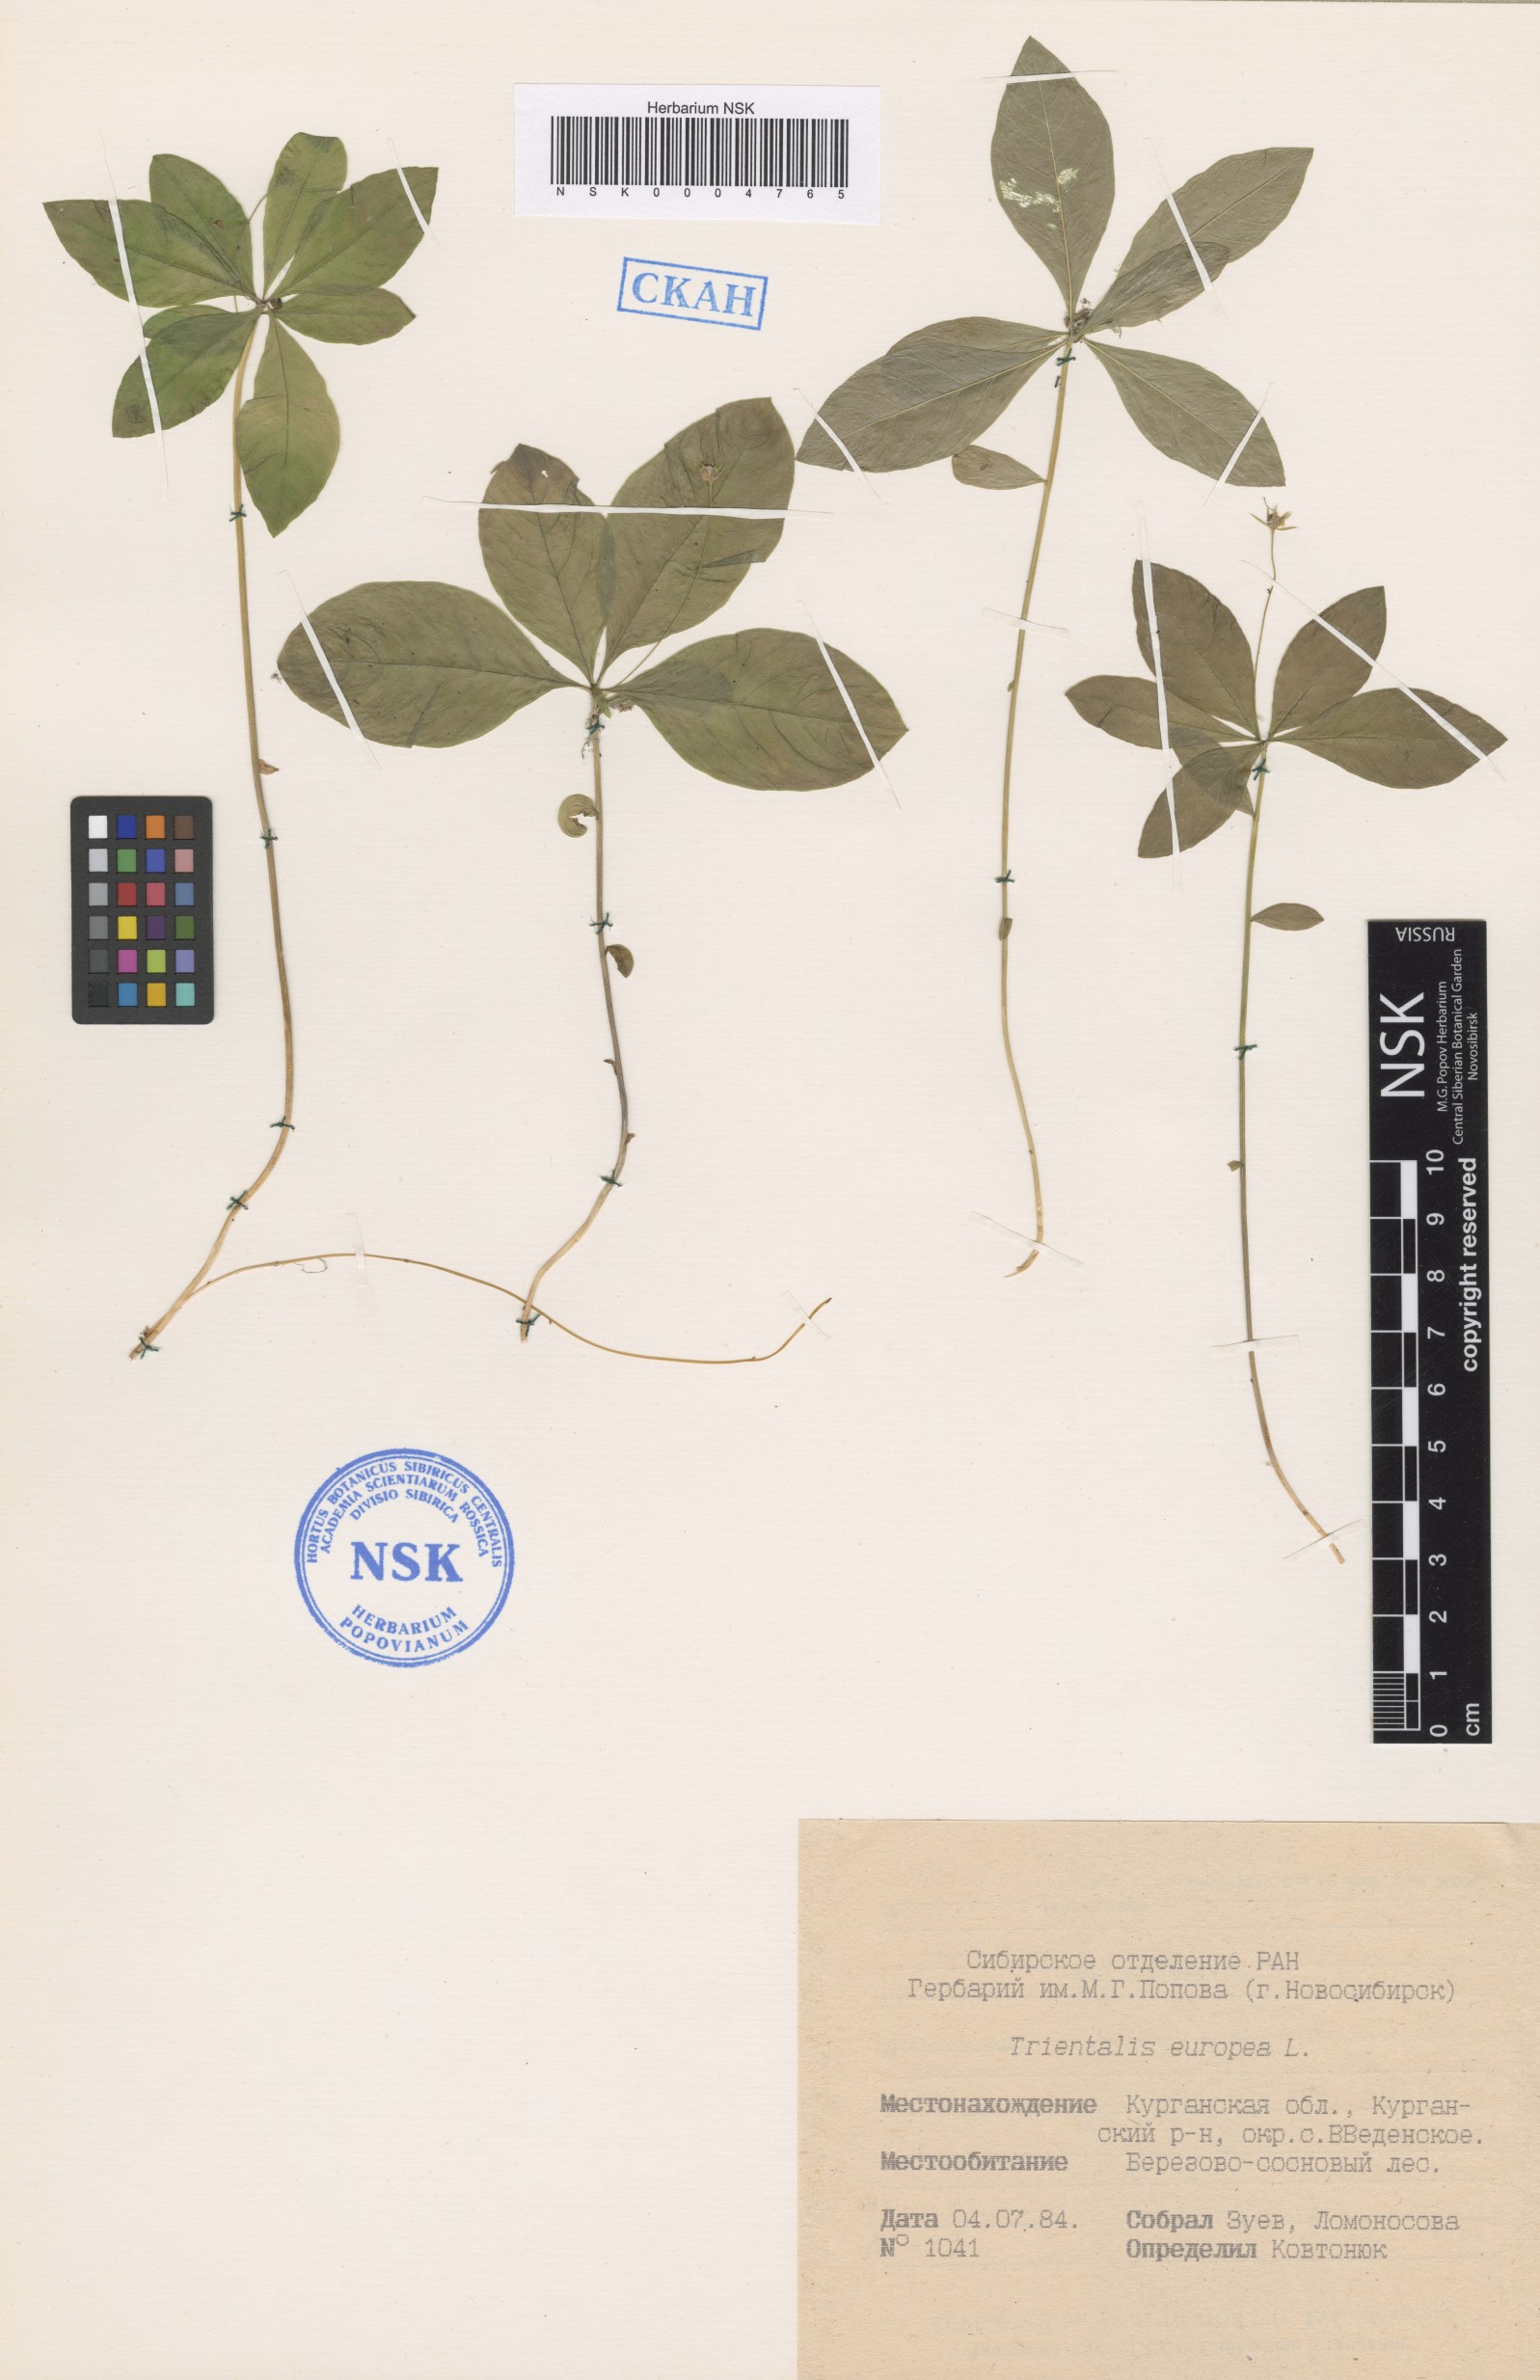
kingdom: Plantae
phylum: Tracheophyta
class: Magnoliopsida
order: Ericales
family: Primulaceae
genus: Lysimachia
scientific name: Lysimachia europaea
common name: Arctic starflower
